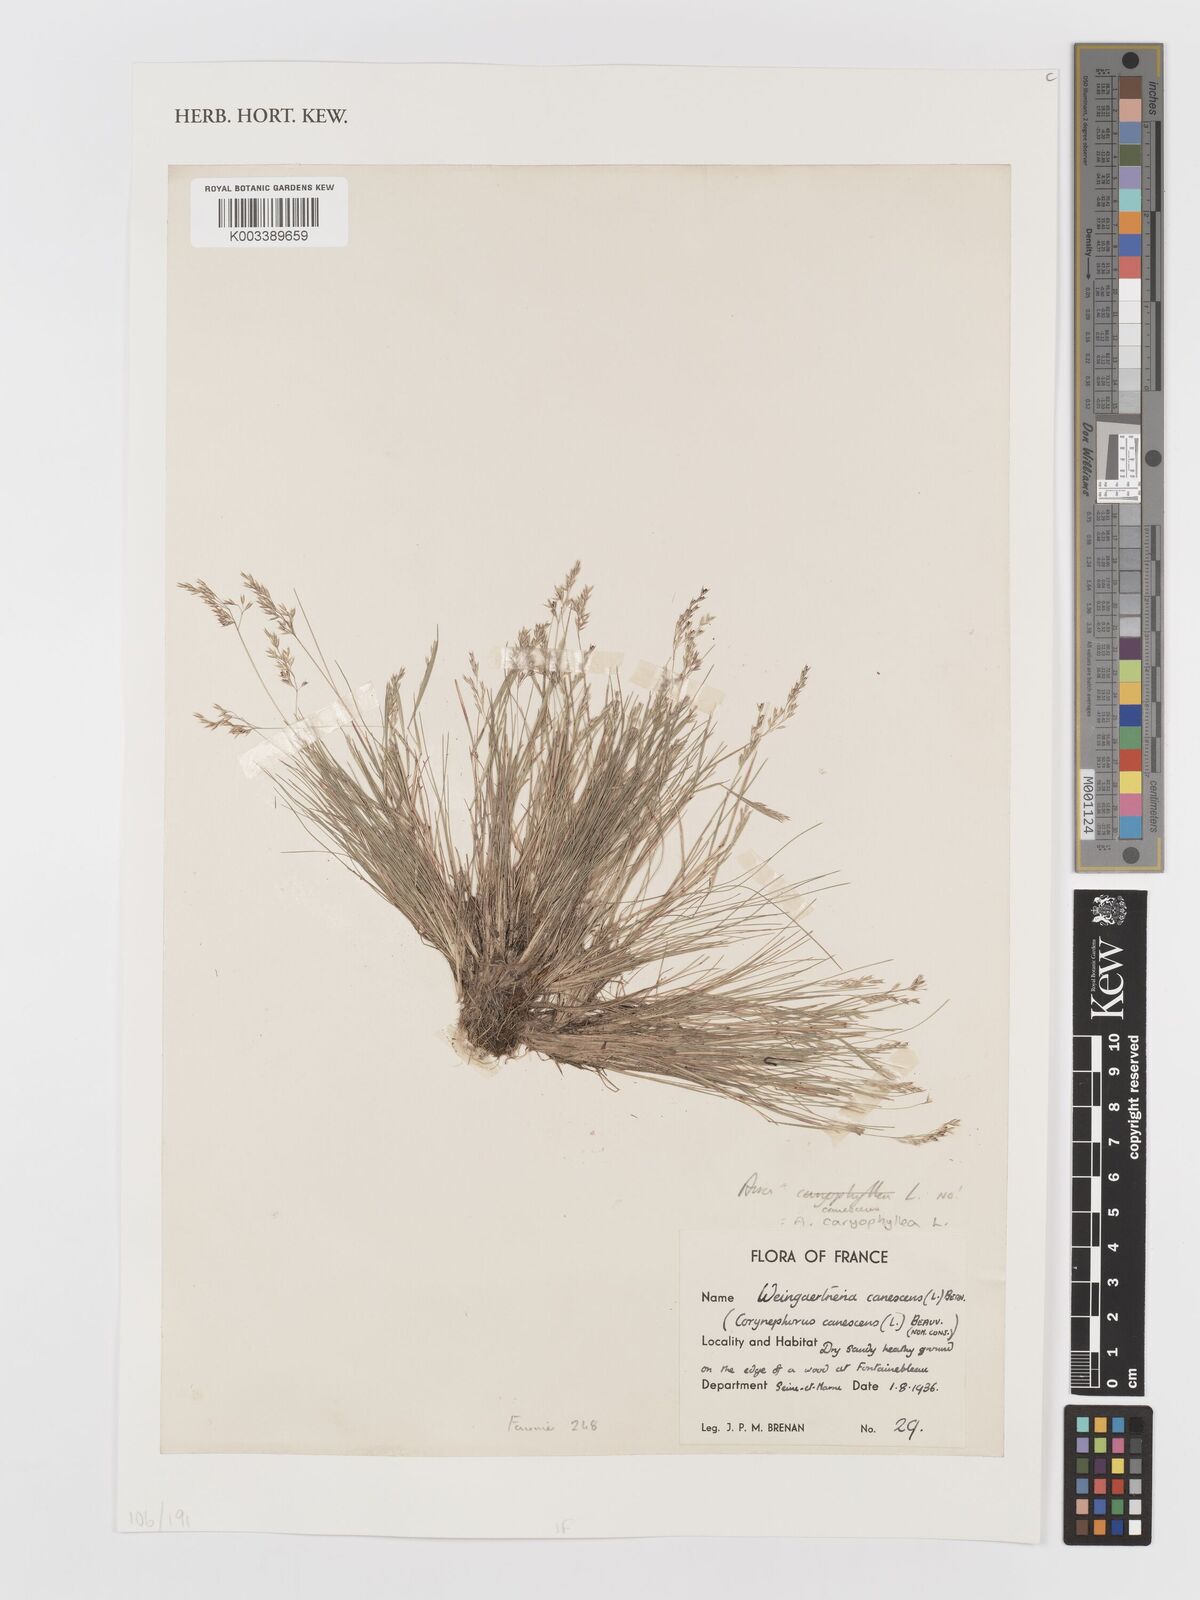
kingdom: Plantae
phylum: Tracheophyta
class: Liliopsida
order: Poales
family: Poaceae
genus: Aira
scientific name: Aira caryophyllea
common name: Silver hairgrass
